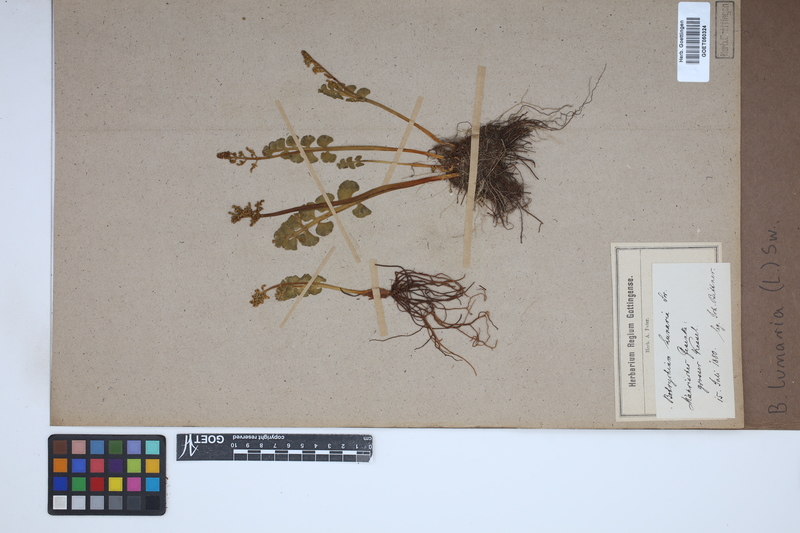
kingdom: Plantae
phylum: Tracheophyta
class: Polypodiopsida
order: Ophioglossales
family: Ophioglossaceae
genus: Botrychium
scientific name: Botrychium lunaria
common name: Moonwort
